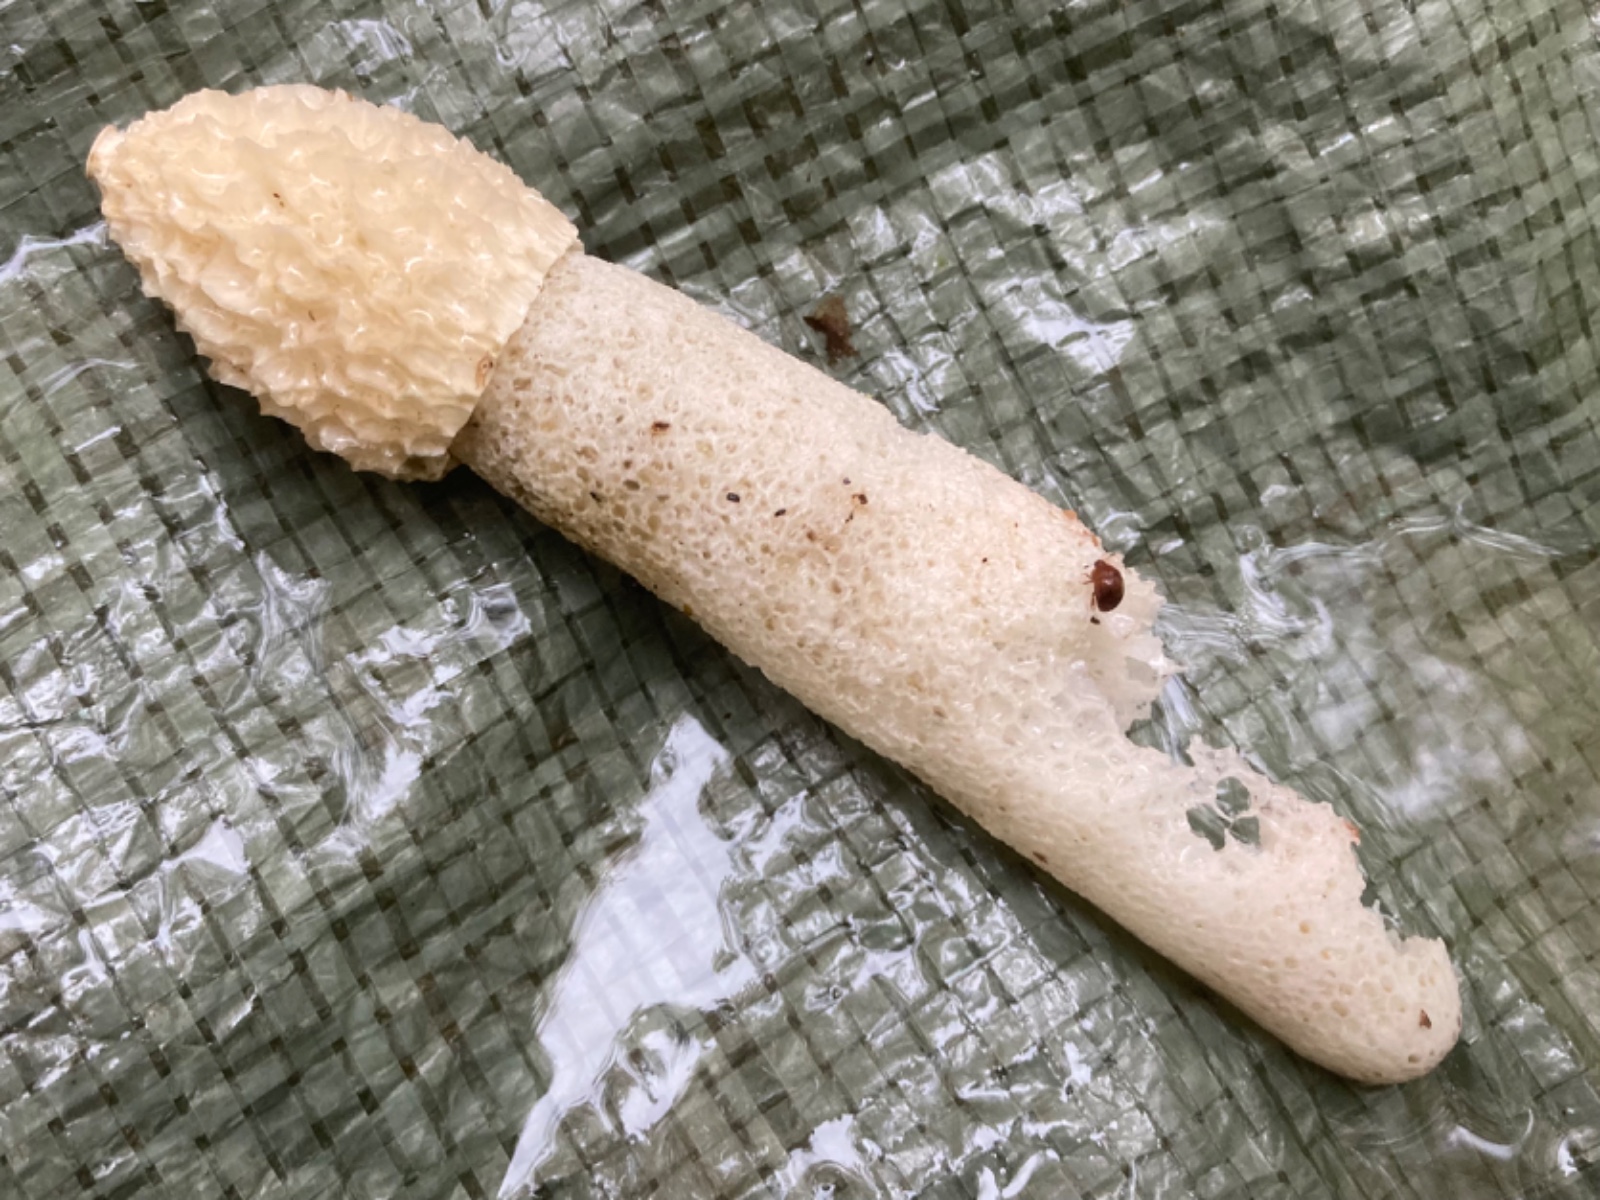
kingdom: Fungi
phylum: Basidiomycota
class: Agaricomycetes
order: Phallales
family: Phallaceae
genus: Phallus
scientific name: Phallus impudicus
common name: almindelig stinksvamp
